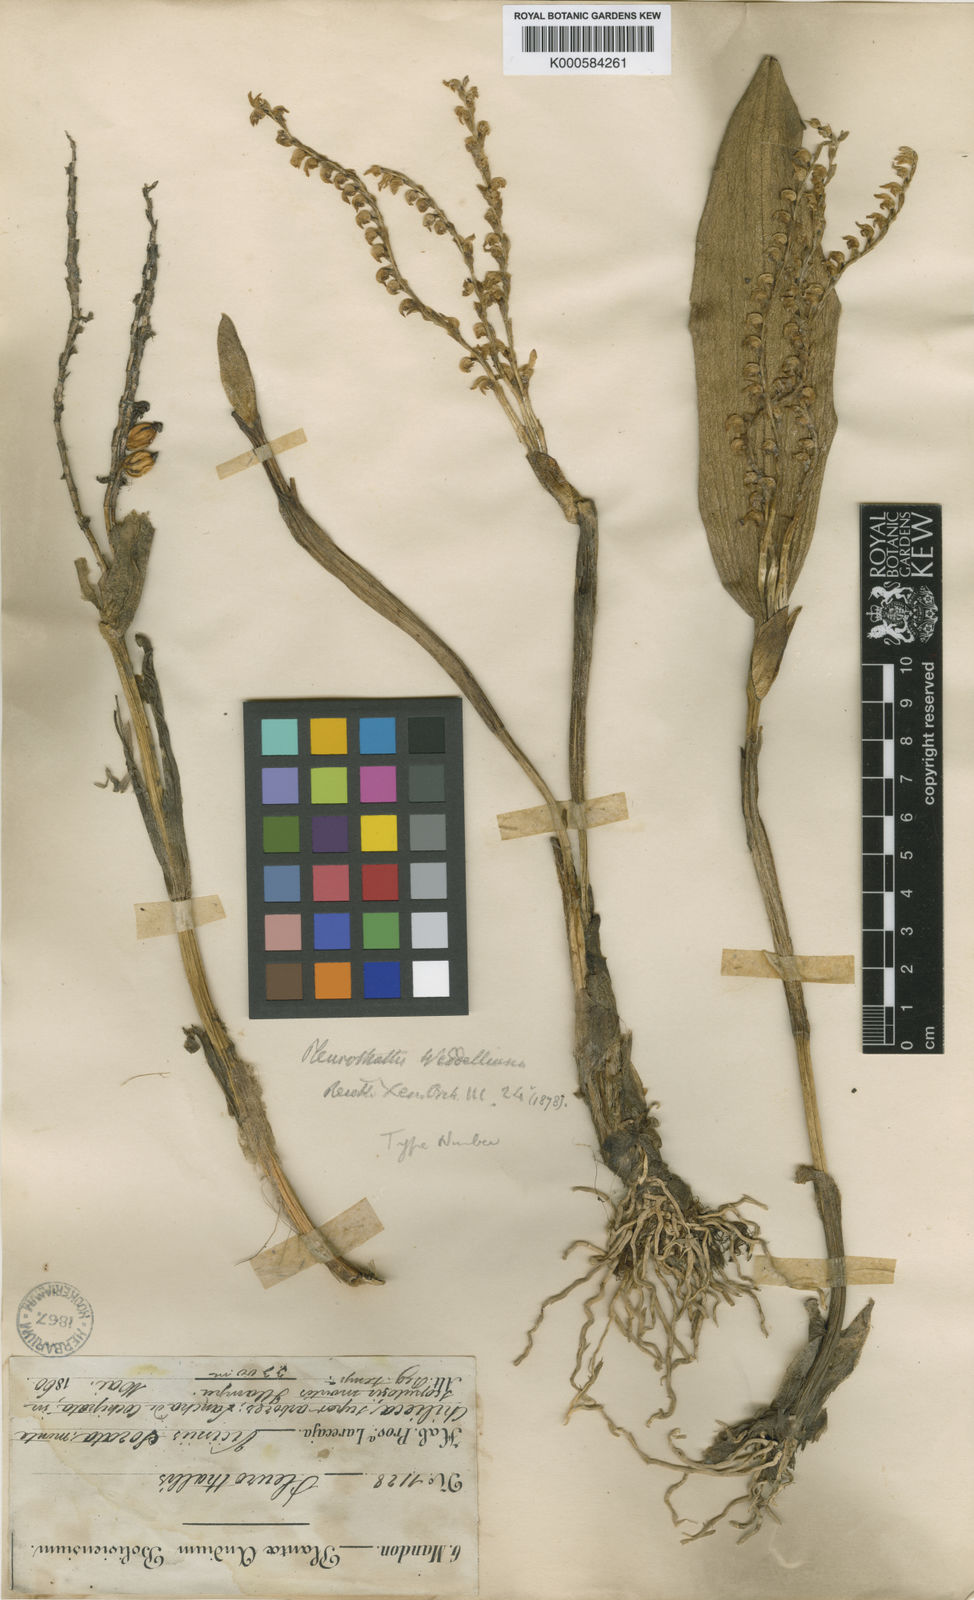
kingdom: Plantae
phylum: Tracheophyta
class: Liliopsida
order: Asparagales
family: Orchidaceae
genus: Stelis
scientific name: Stelis weddelliana
